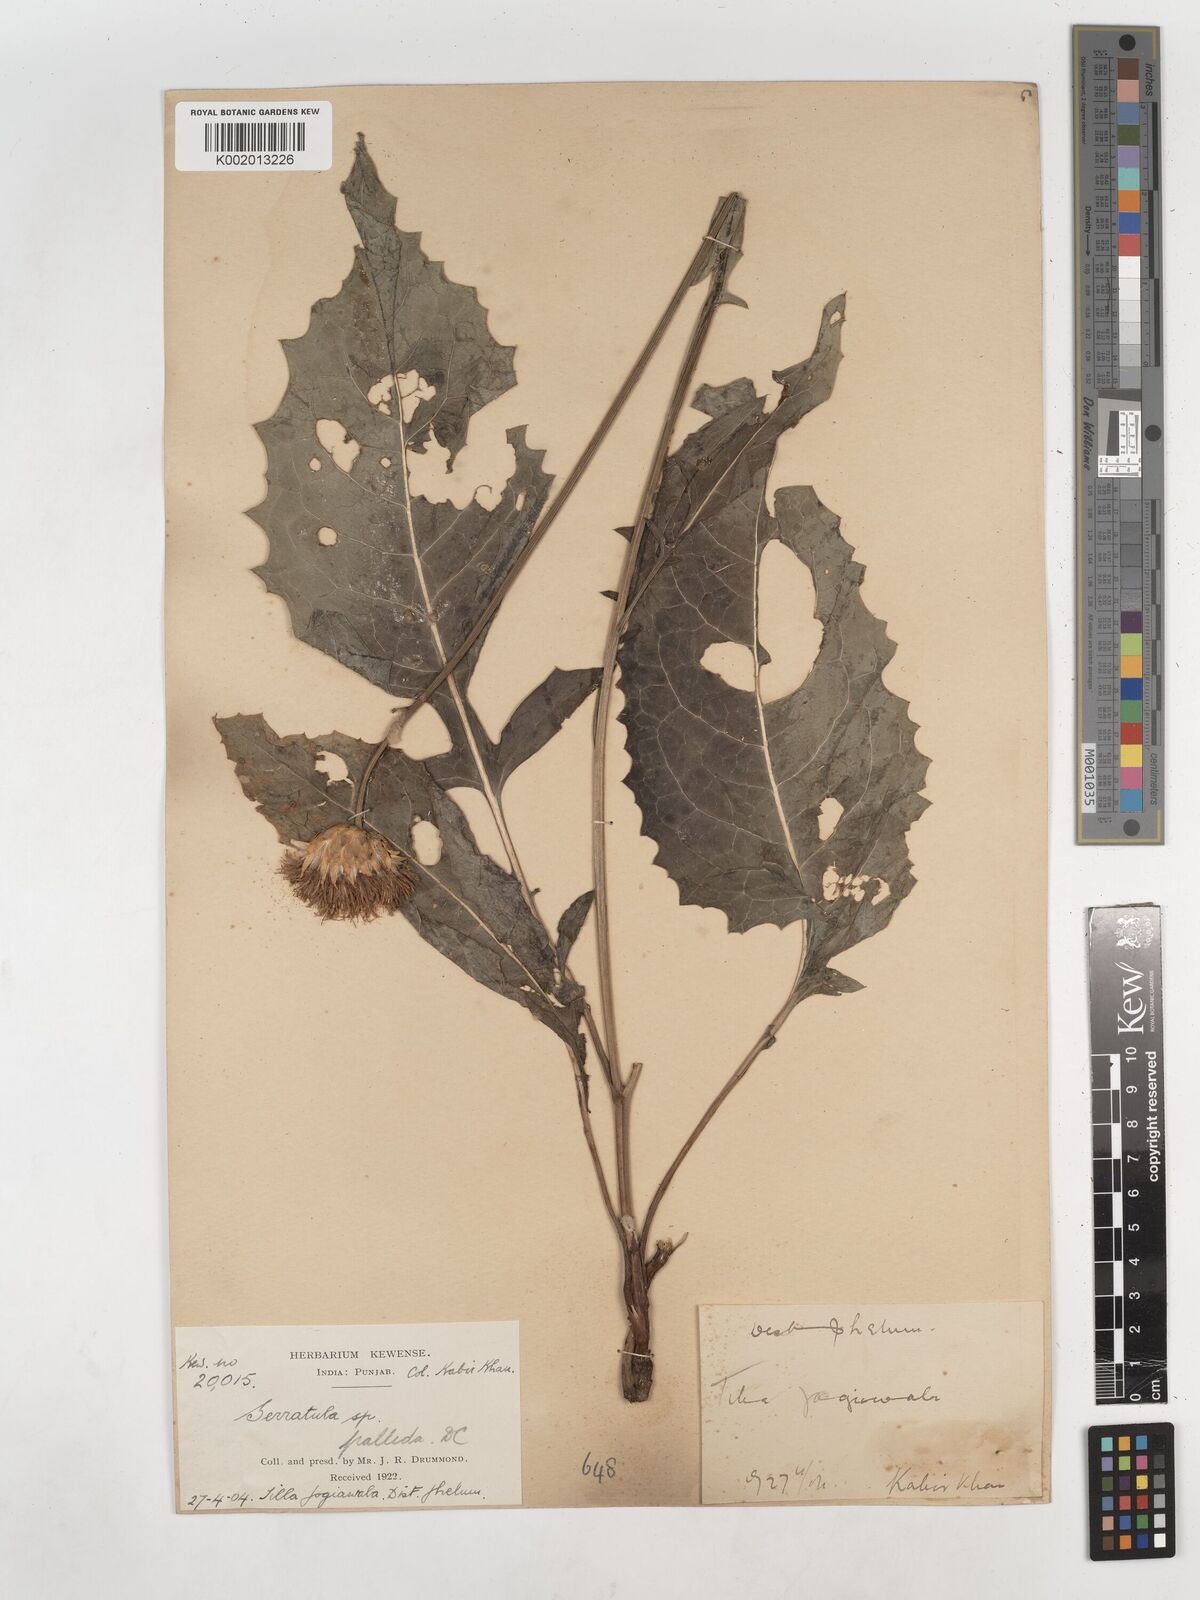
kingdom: Plantae
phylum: Tracheophyta
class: Magnoliopsida
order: Asterales
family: Asteraceae
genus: Klasea
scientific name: Klasea pallida
